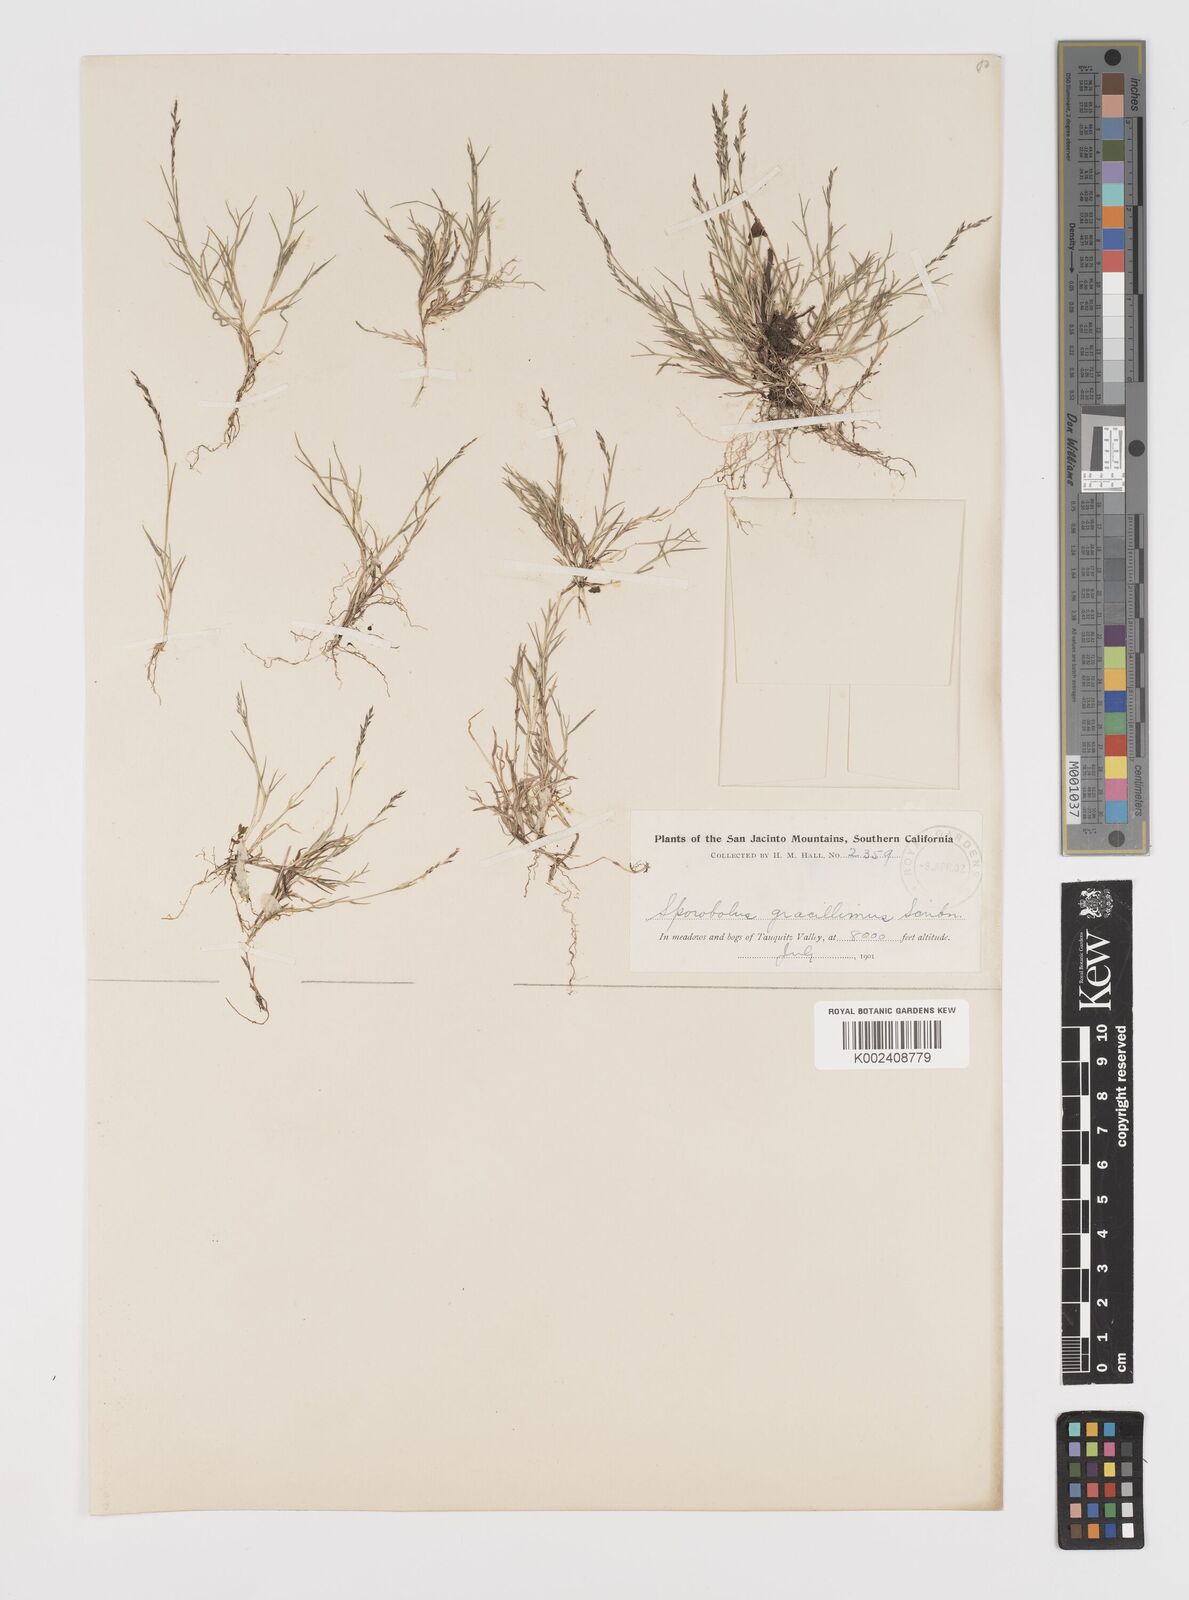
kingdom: Plantae
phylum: Tracheophyta
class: Liliopsida
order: Poales
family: Poaceae
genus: Leptochloa
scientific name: Leptochloa mucronata
